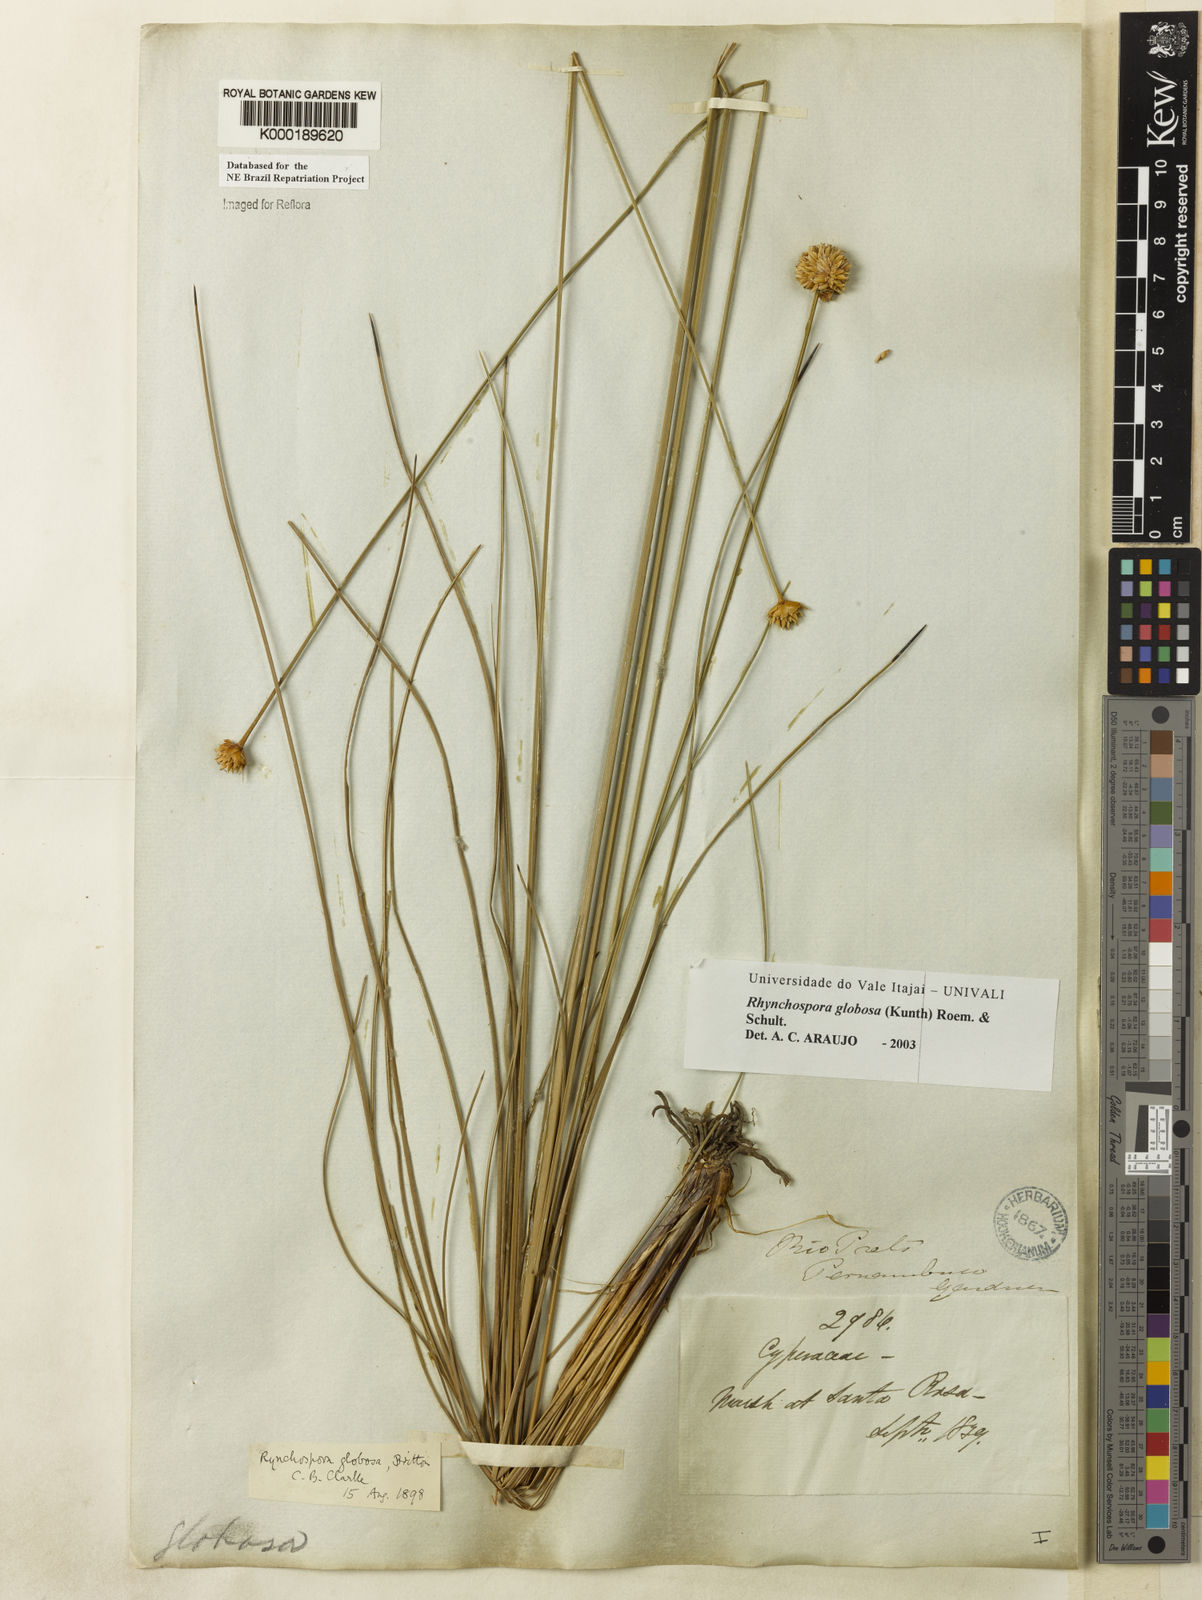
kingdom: Plantae
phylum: Tracheophyta
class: Liliopsida
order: Poales
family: Cyperaceae
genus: Rhynchospora
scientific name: Rhynchospora globosa
